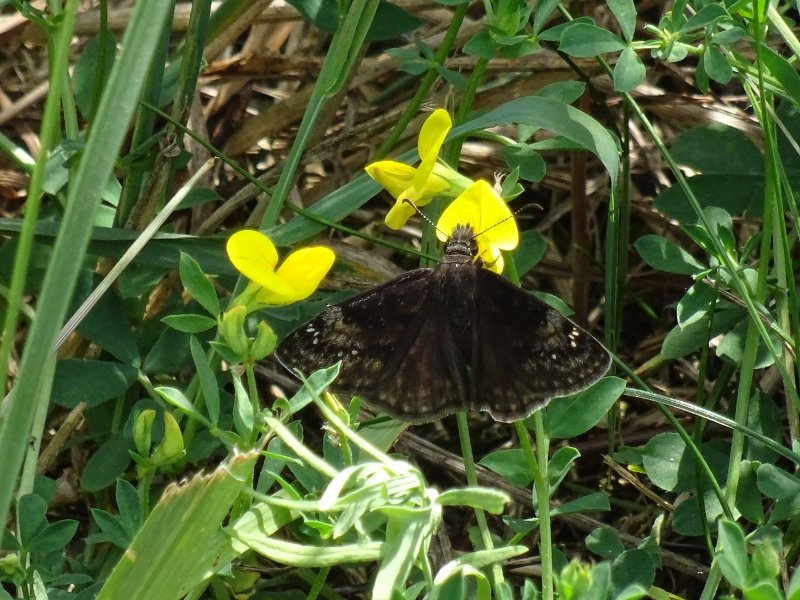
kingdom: Animalia
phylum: Arthropoda
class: Insecta
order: Lepidoptera
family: Hesperiidae
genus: Gesta
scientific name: Gesta
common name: Wild Indigo Duskywing
